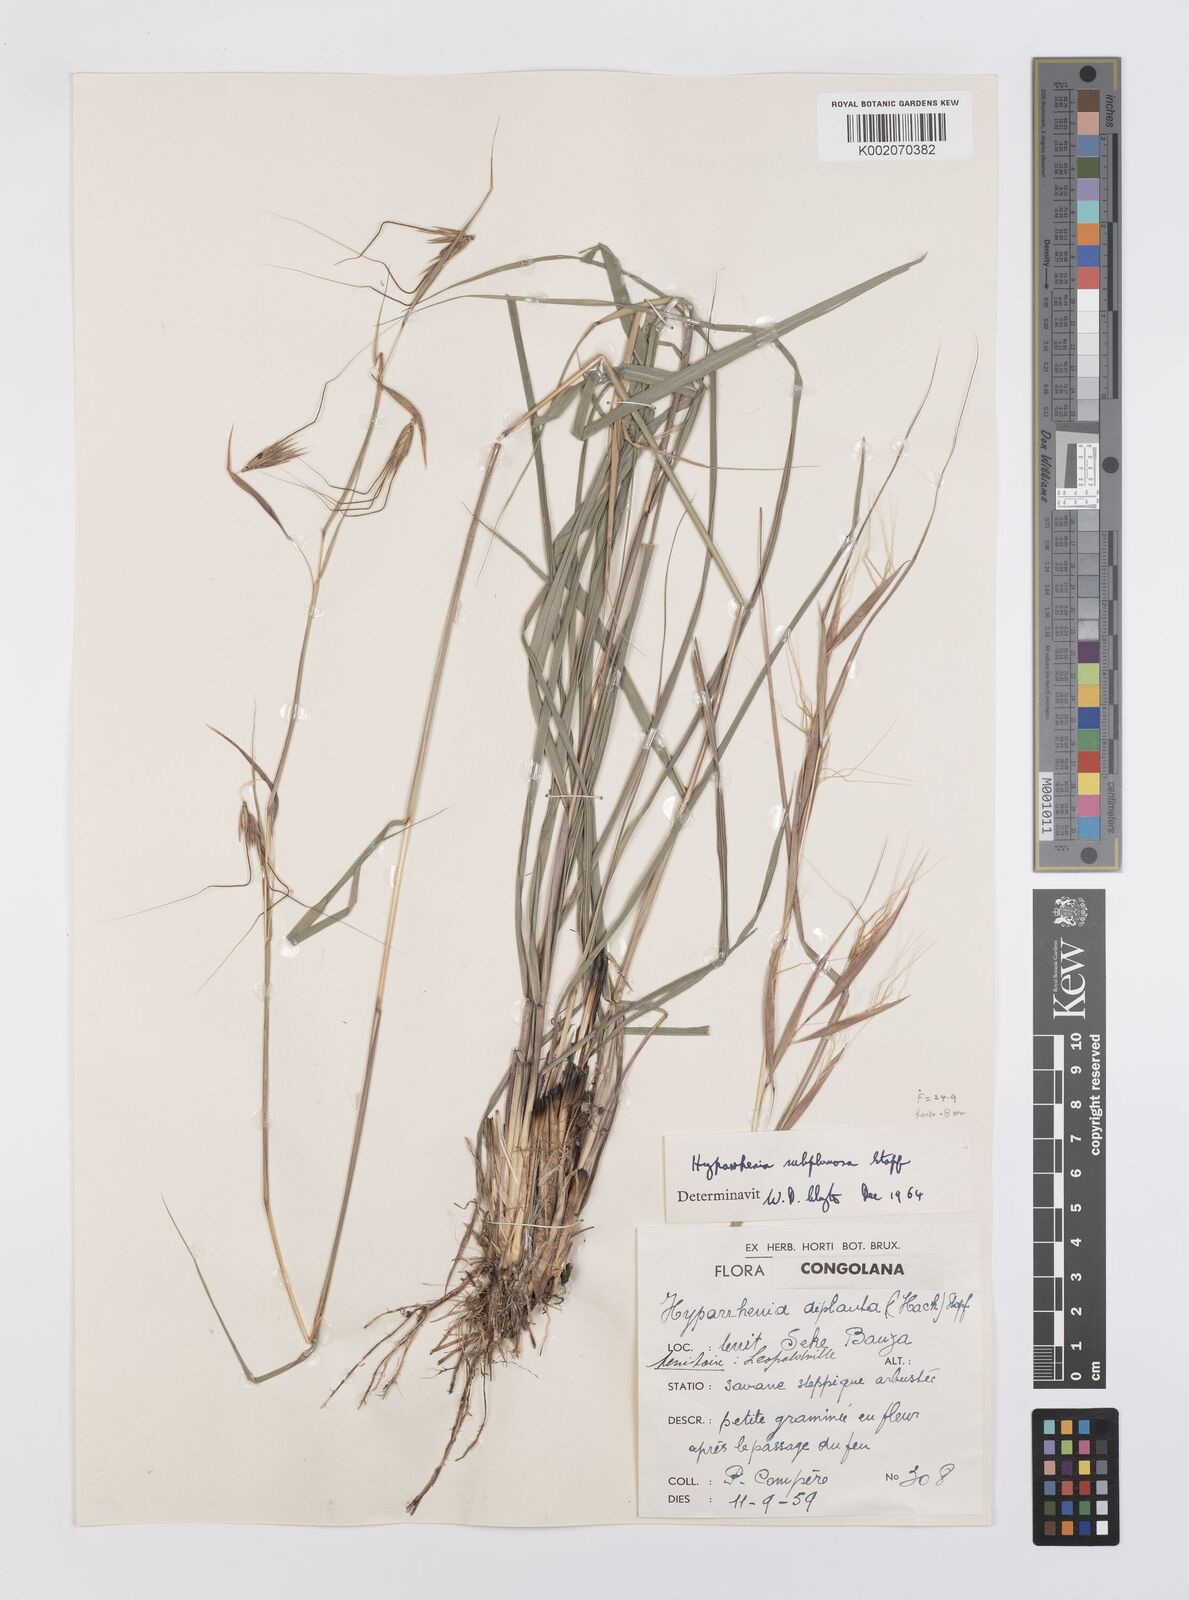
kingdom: Plantae
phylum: Tracheophyta
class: Liliopsida
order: Poales
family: Poaceae
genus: Hyparrhenia
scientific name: Hyparrhenia subplumosa
